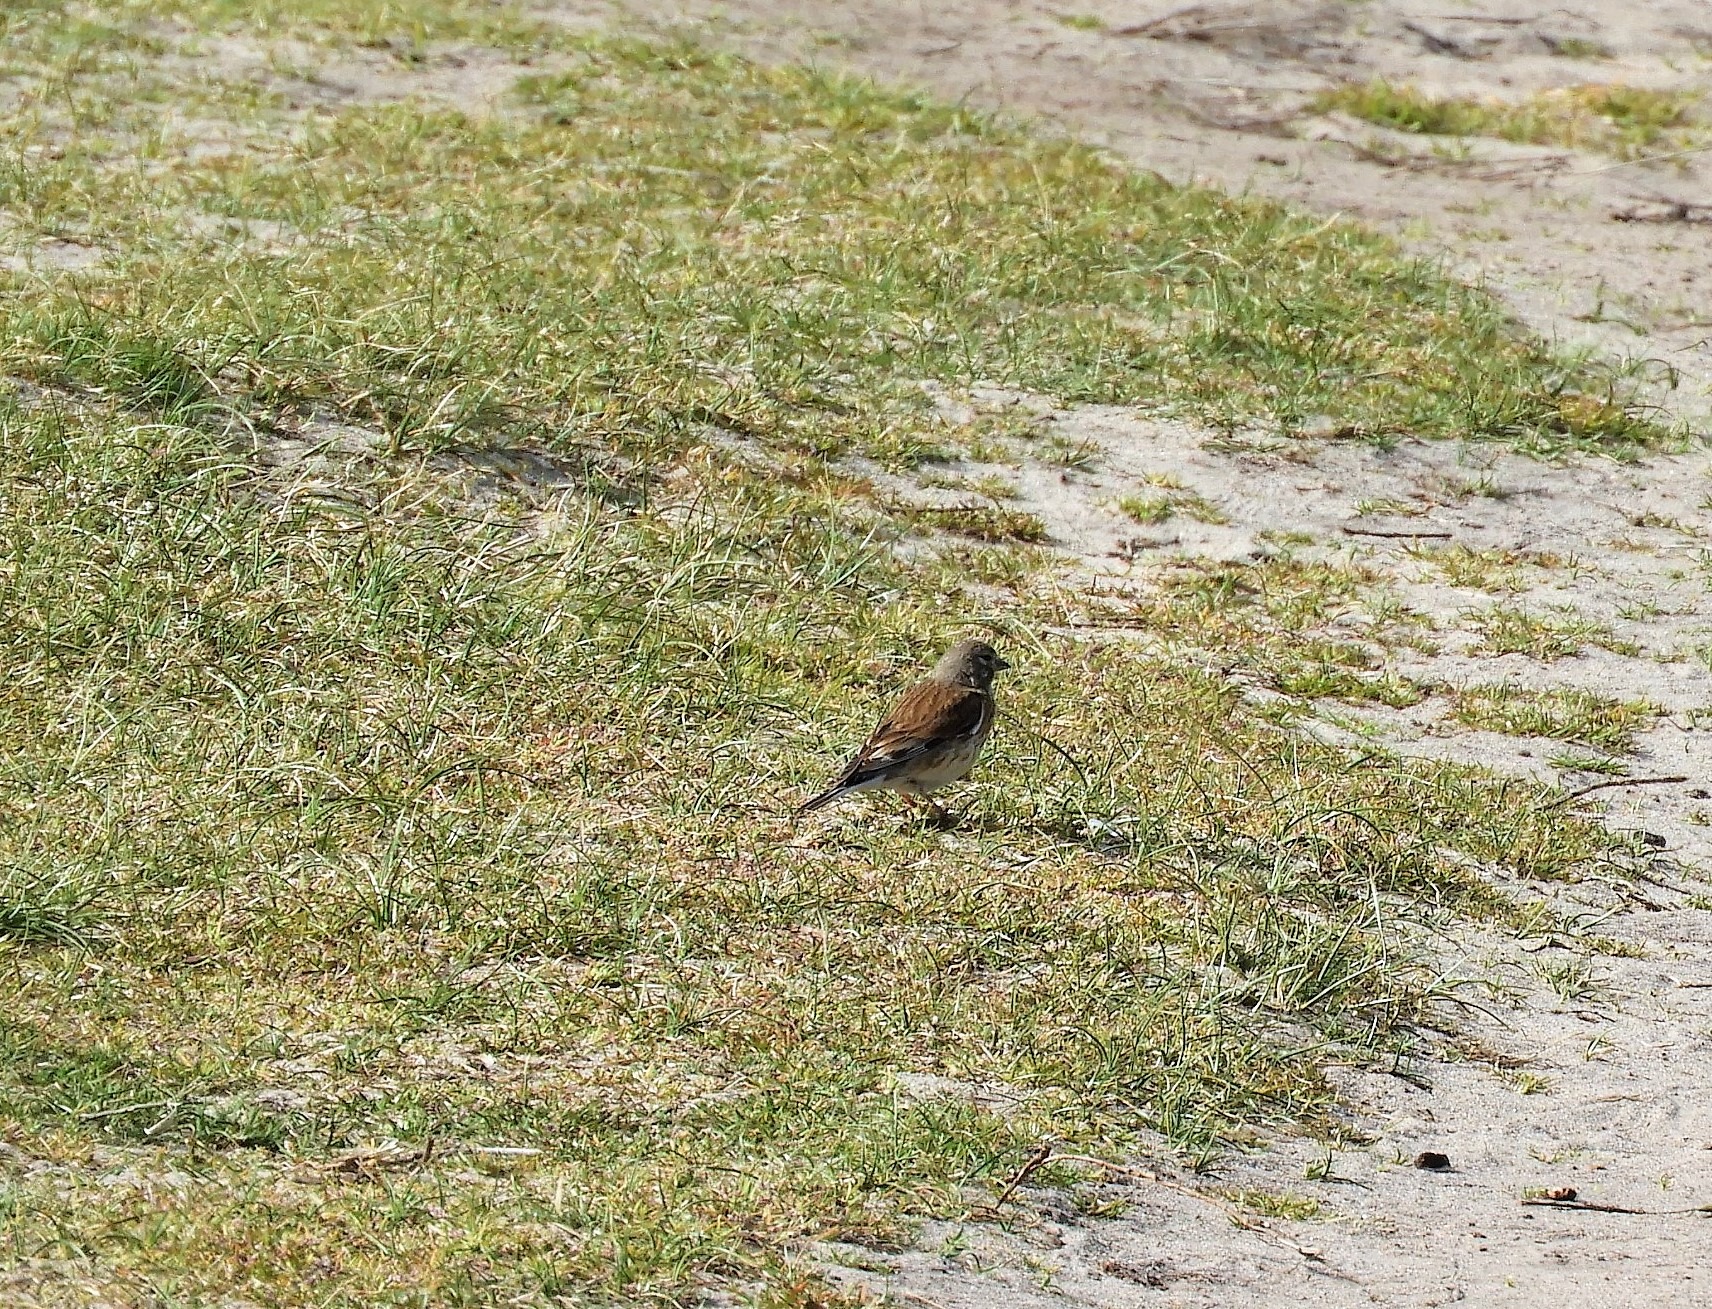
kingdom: Animalia
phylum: Chordata
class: Aves
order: Passeriformes
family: Fringillidae
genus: Linaria
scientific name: Linaria cannabina
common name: Tornirisk
